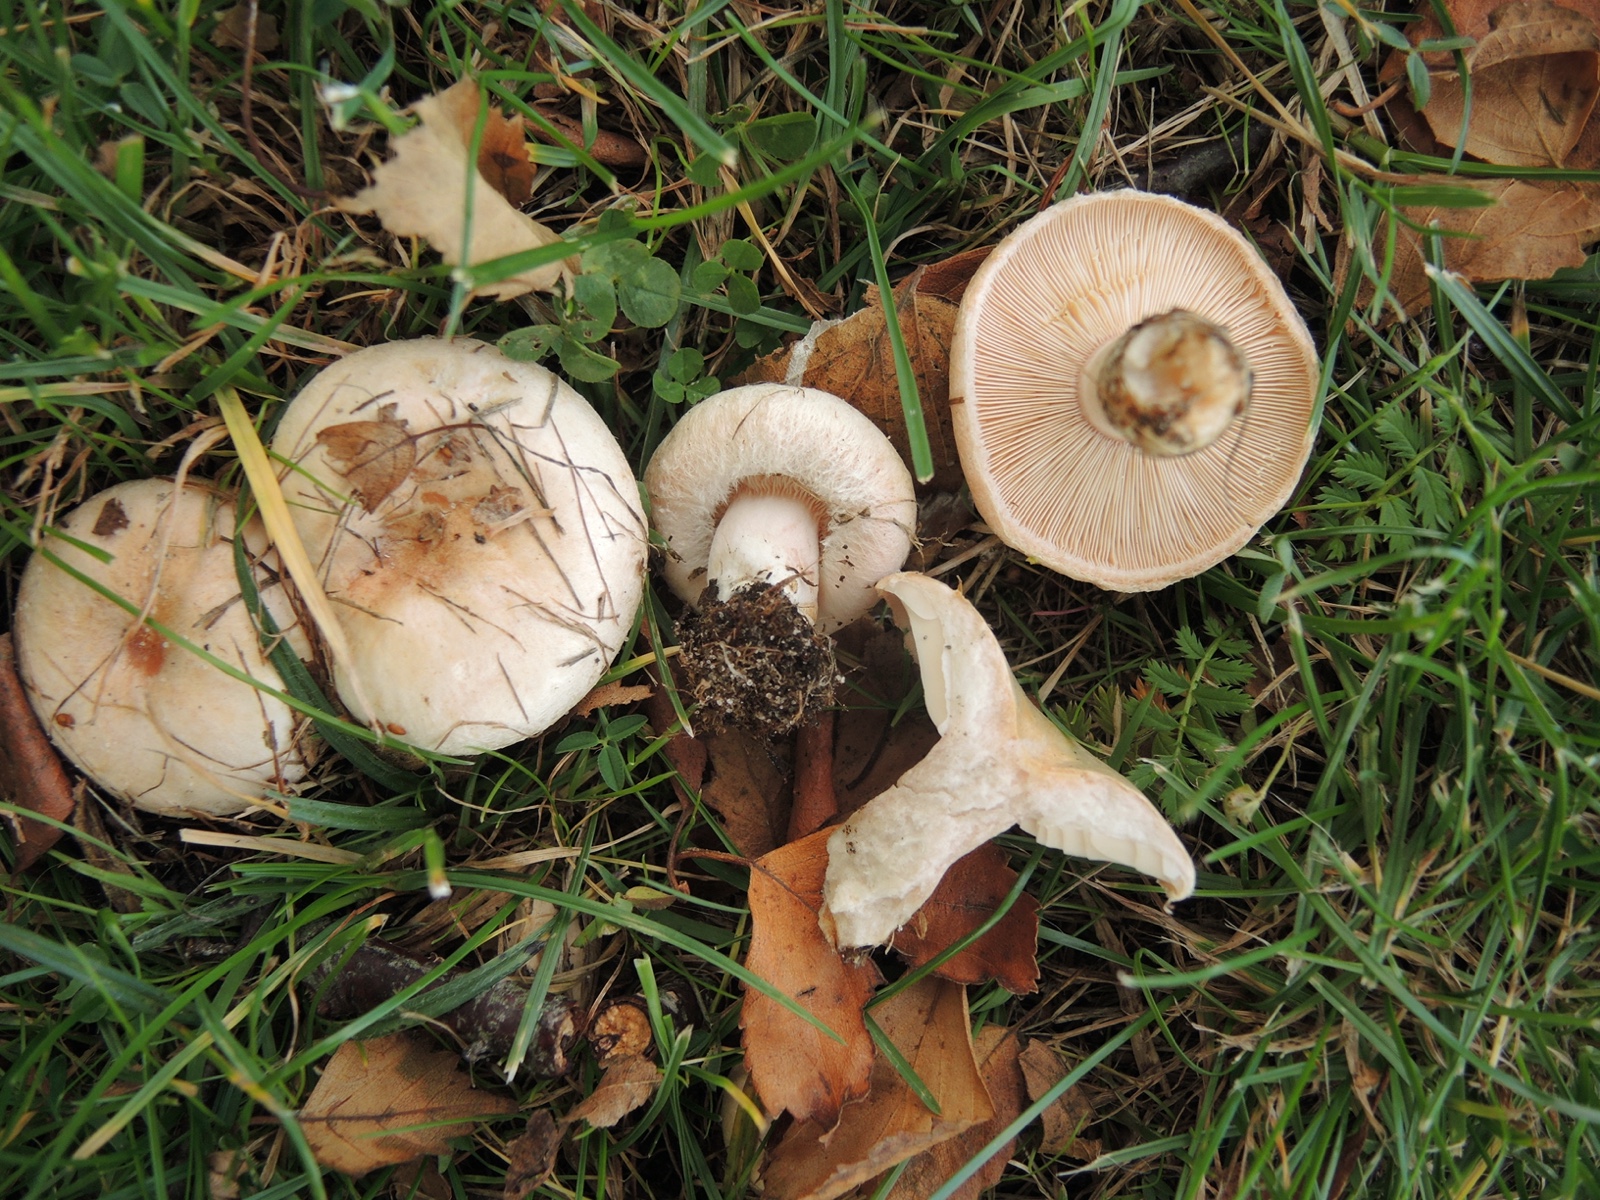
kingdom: Fungi
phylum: Basidiomycota
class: Agaricomycetes
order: Russulales
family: Russulaceae
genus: Lactarius
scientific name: Lactarius pubescens
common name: dunet mælkehat
